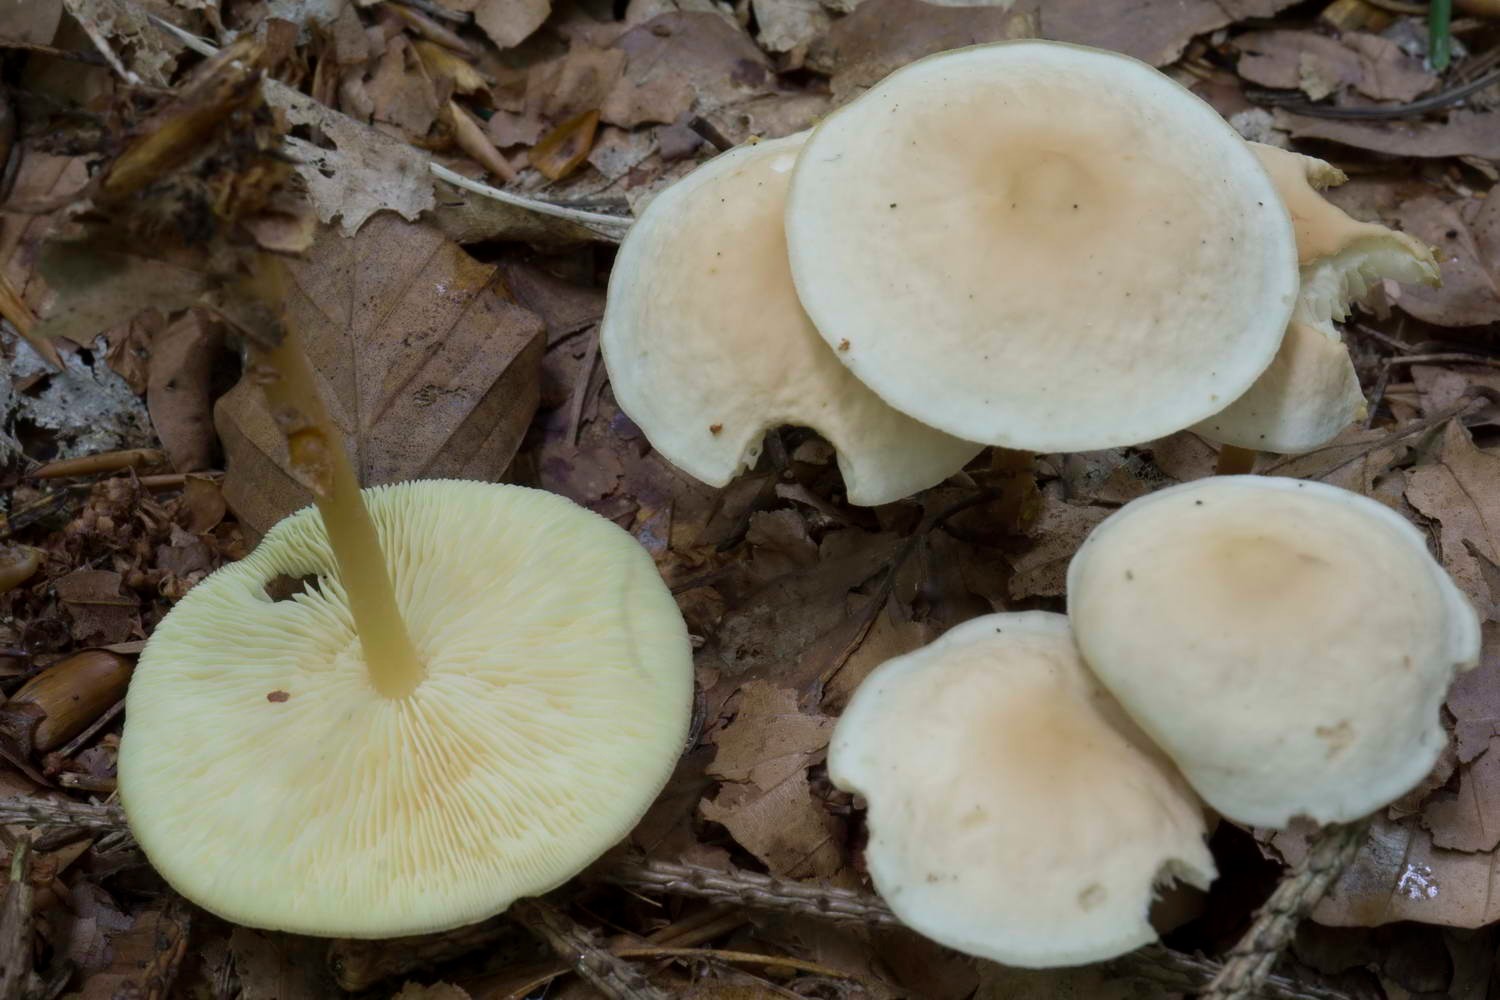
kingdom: Fungi
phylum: Basidiomycota
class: Agaricomycetes
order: Agaricales
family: Omphalotaceae
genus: Gymnopus
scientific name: Gymnopus ocior
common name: mørk fladhat
